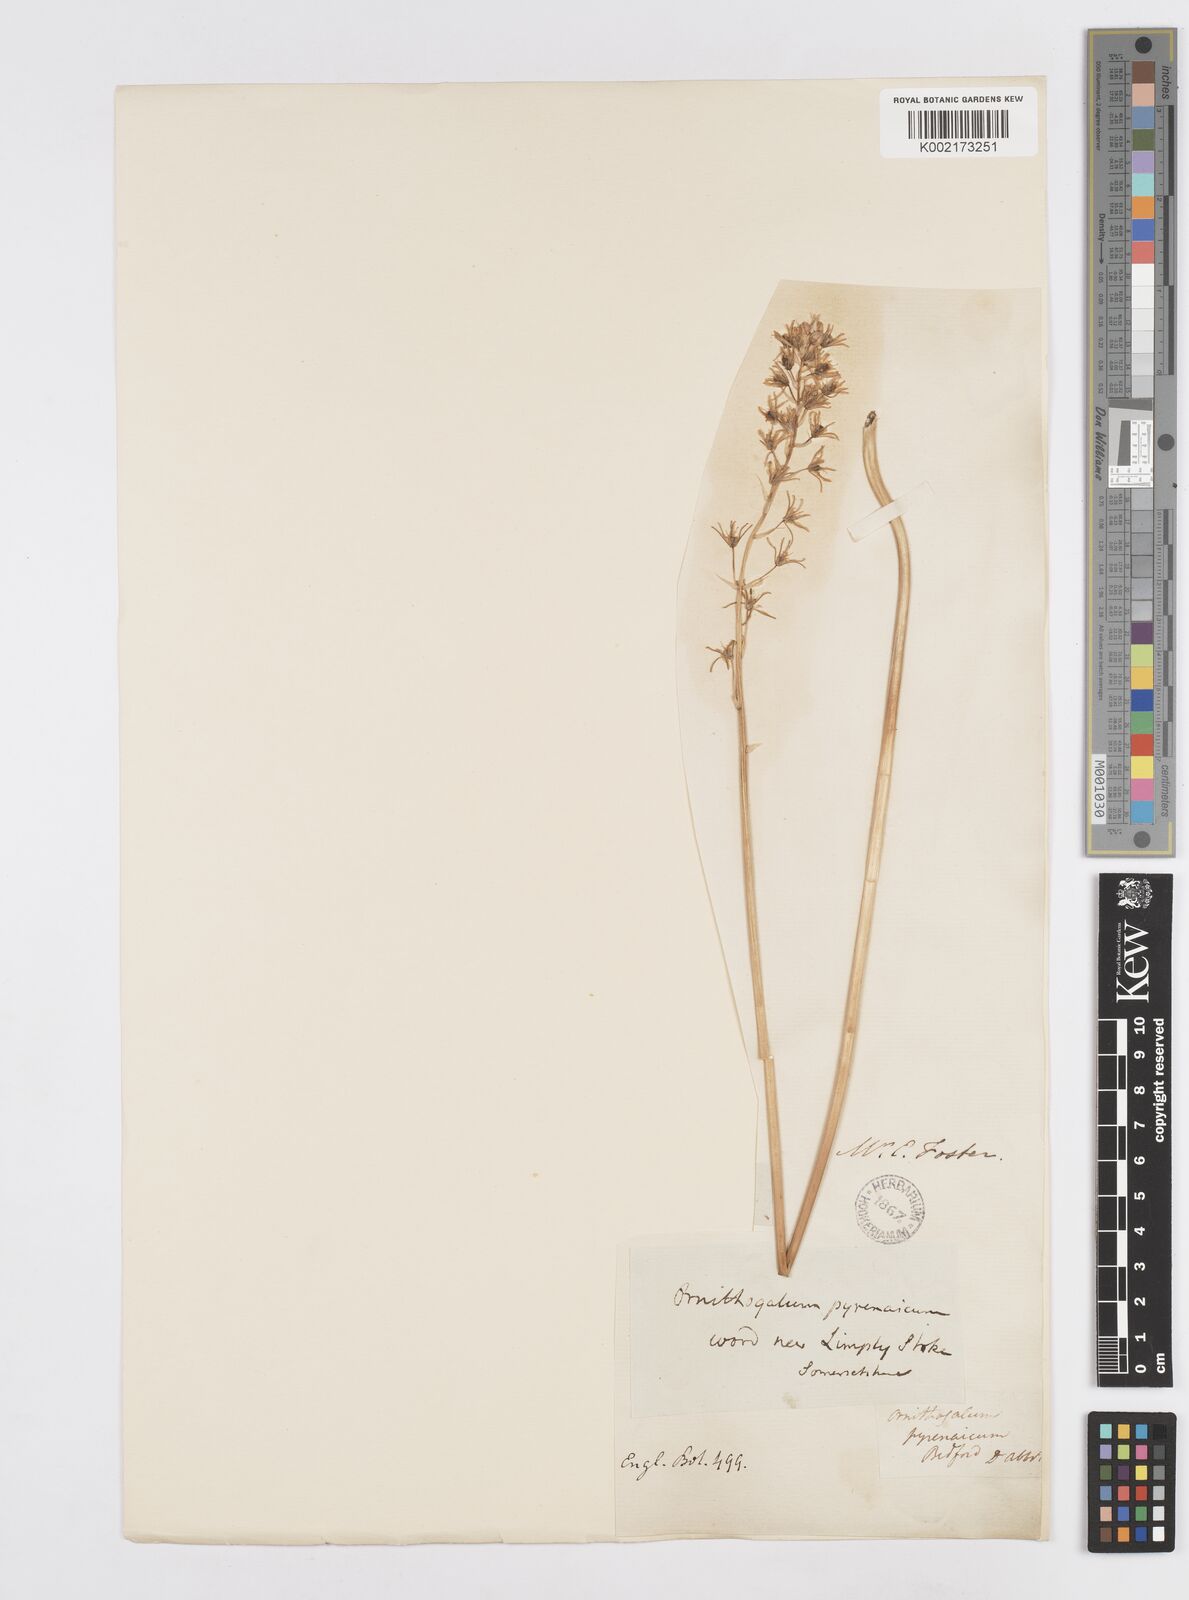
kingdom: Plantae
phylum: Tracheophyta
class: Liliopsida
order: Asparagales
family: Asparagaceae
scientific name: Asparagaceae
